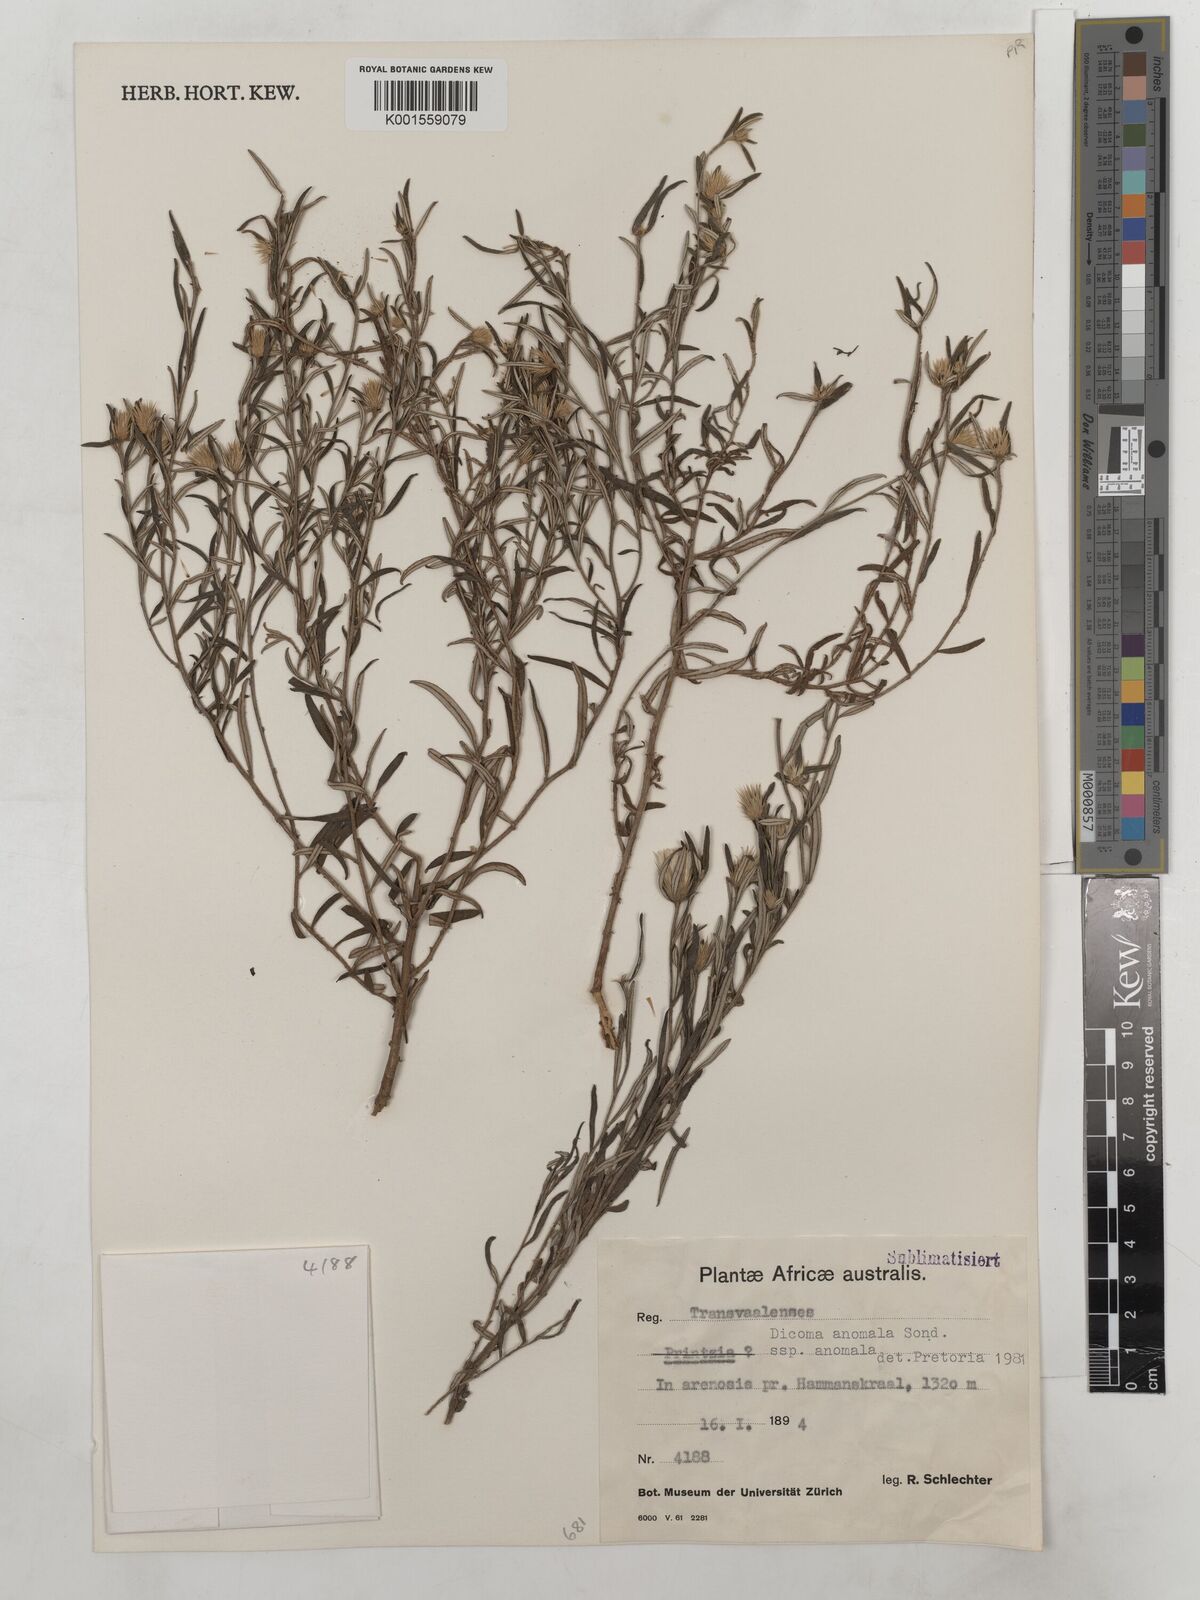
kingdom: Plantae
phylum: Tracheophyta
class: Magnoliopsida
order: Asterales
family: Asteraceae
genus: Dicoma
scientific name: Dicoma anomala
